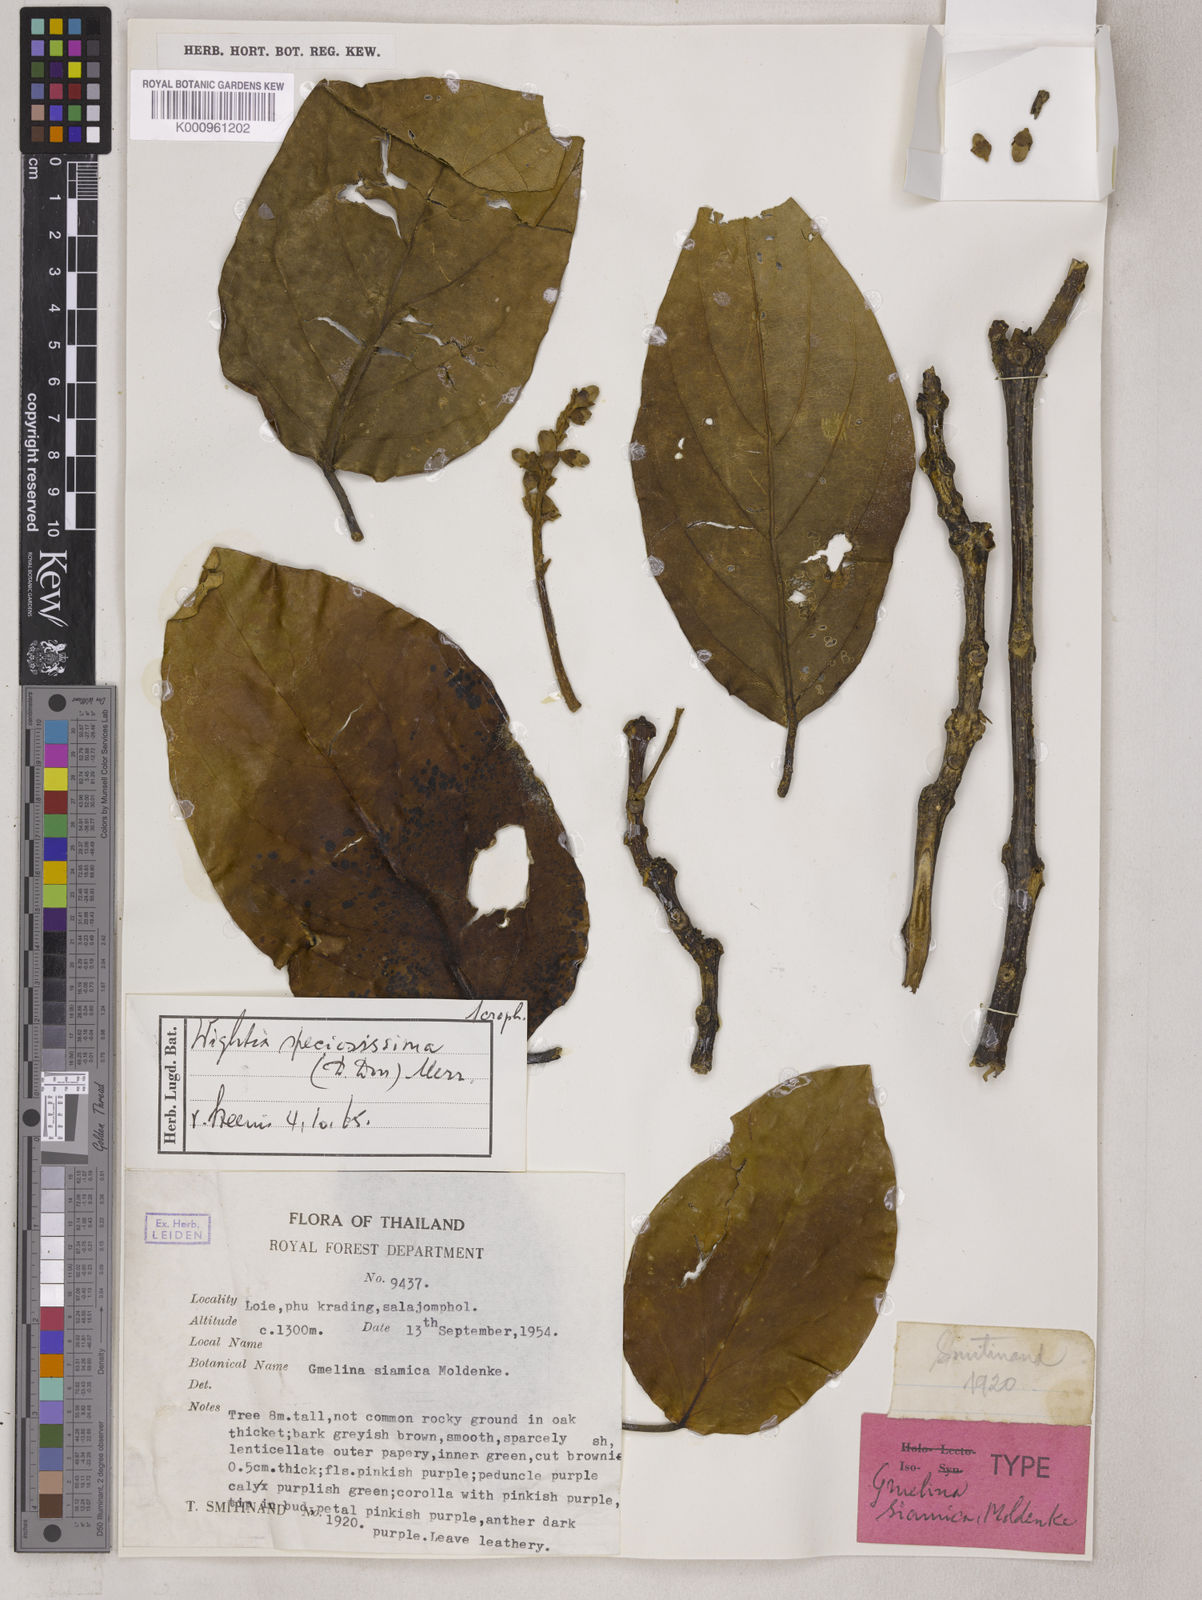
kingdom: Plantae
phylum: Tracheophyta
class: Magnoliopsida
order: Lamiales
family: Wightiaceae
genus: Wightia
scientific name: Wightia speciosissima
